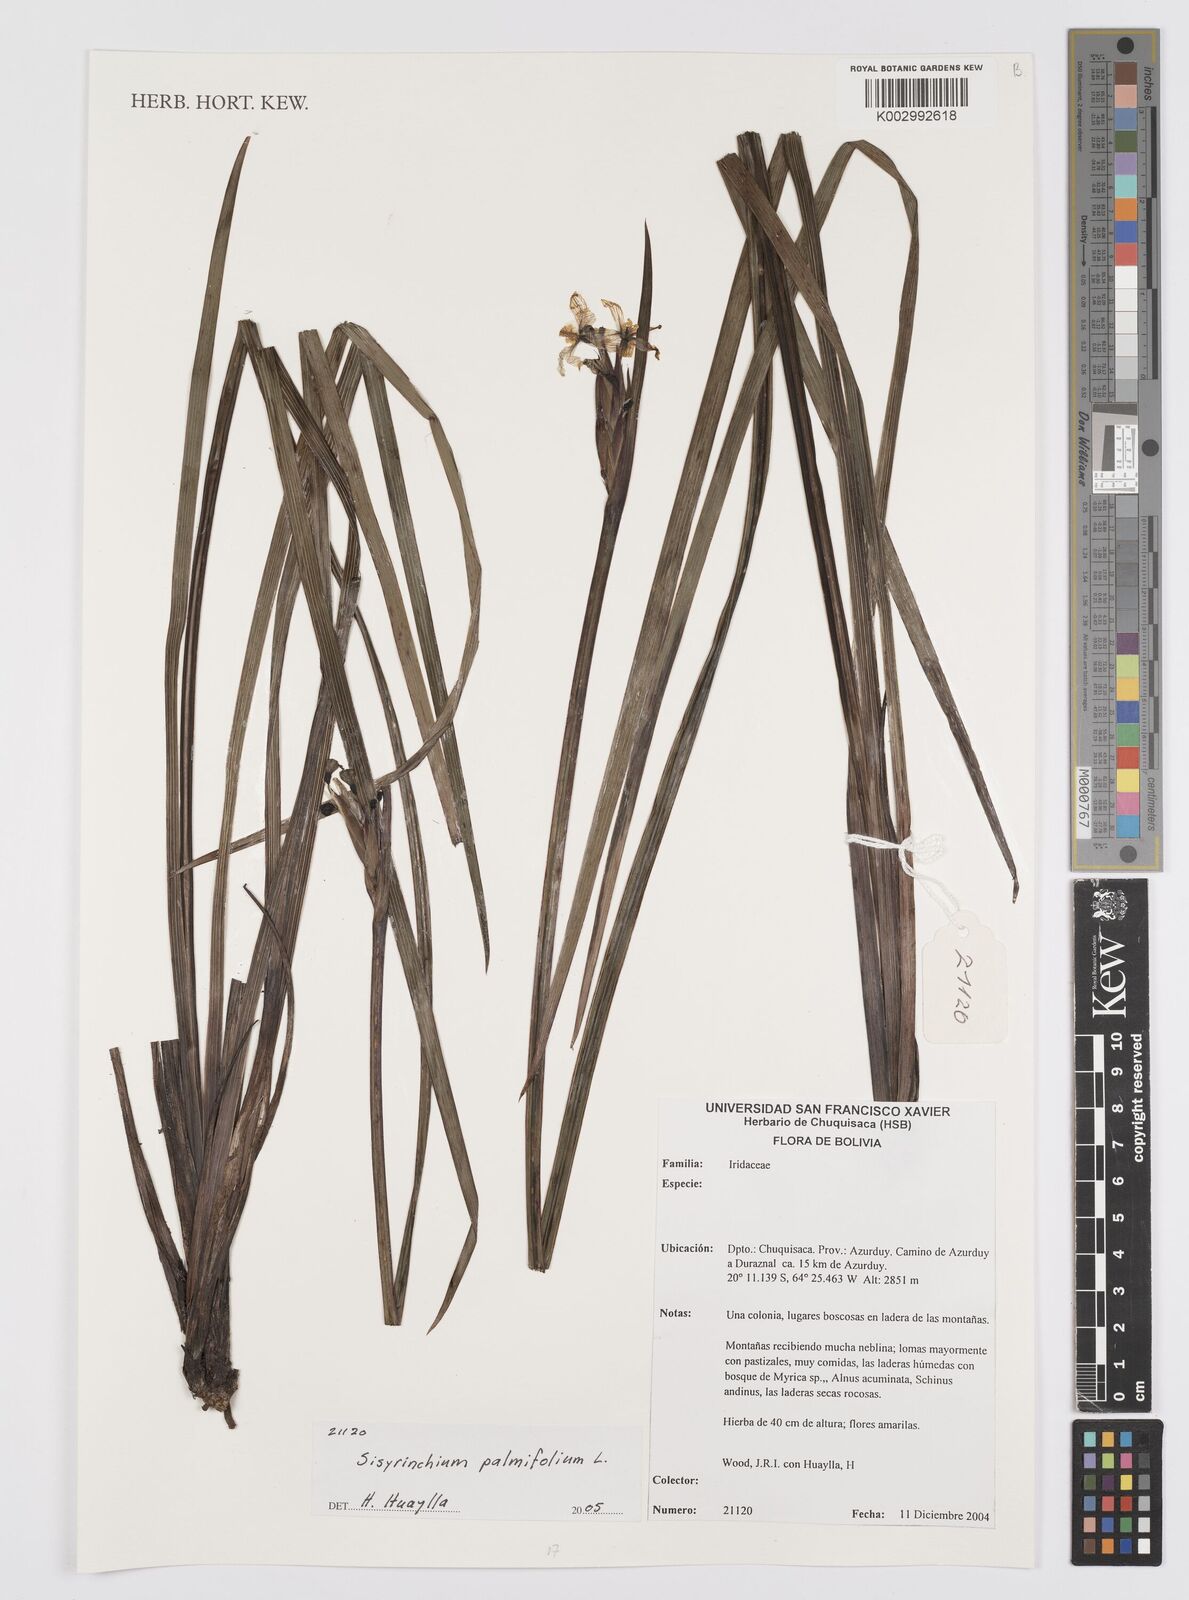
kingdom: Plantae
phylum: Tracheophyta
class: Liliopsida
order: Asparagales
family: Iridaceae
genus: Sisyrinchium
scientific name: Sisyrinchium palmifolium
